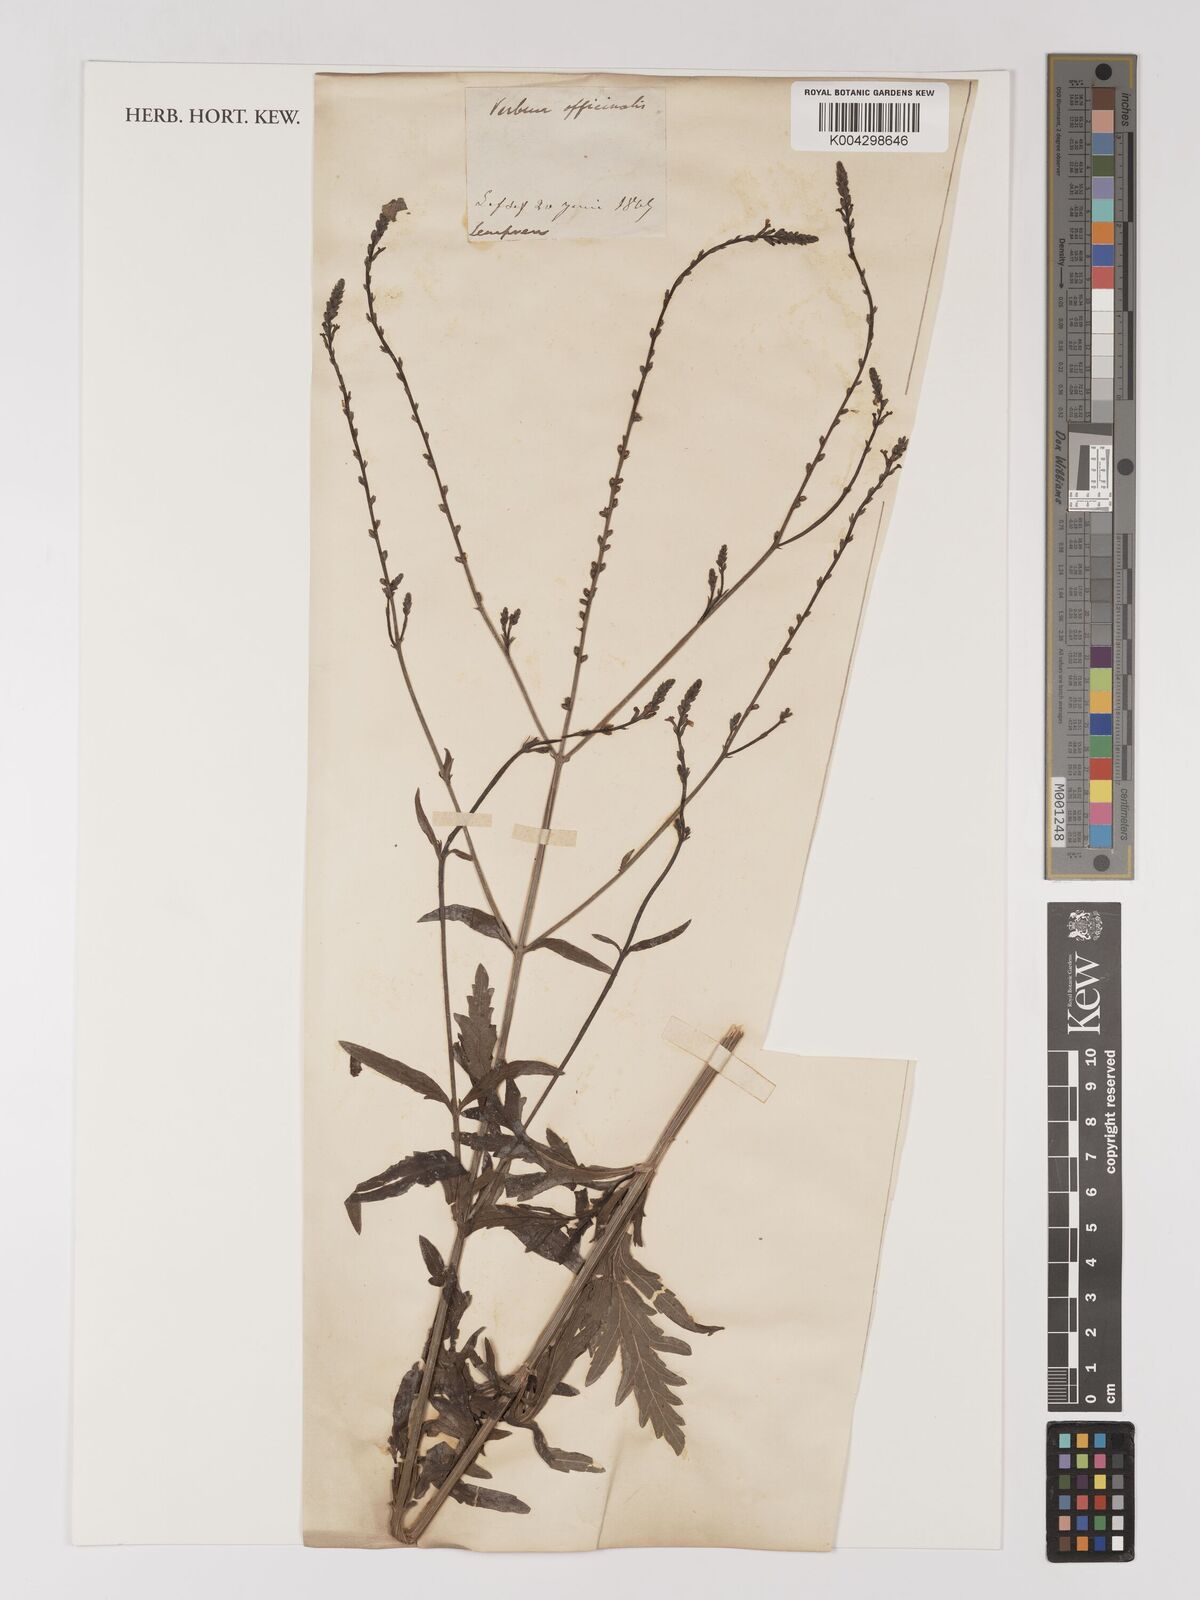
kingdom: Plantae
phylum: Tracheophyta
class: Magnoliopsida
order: Lamiales
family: Verbenaceae
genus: Verbena
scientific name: Verbena officinalis
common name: Vervain
